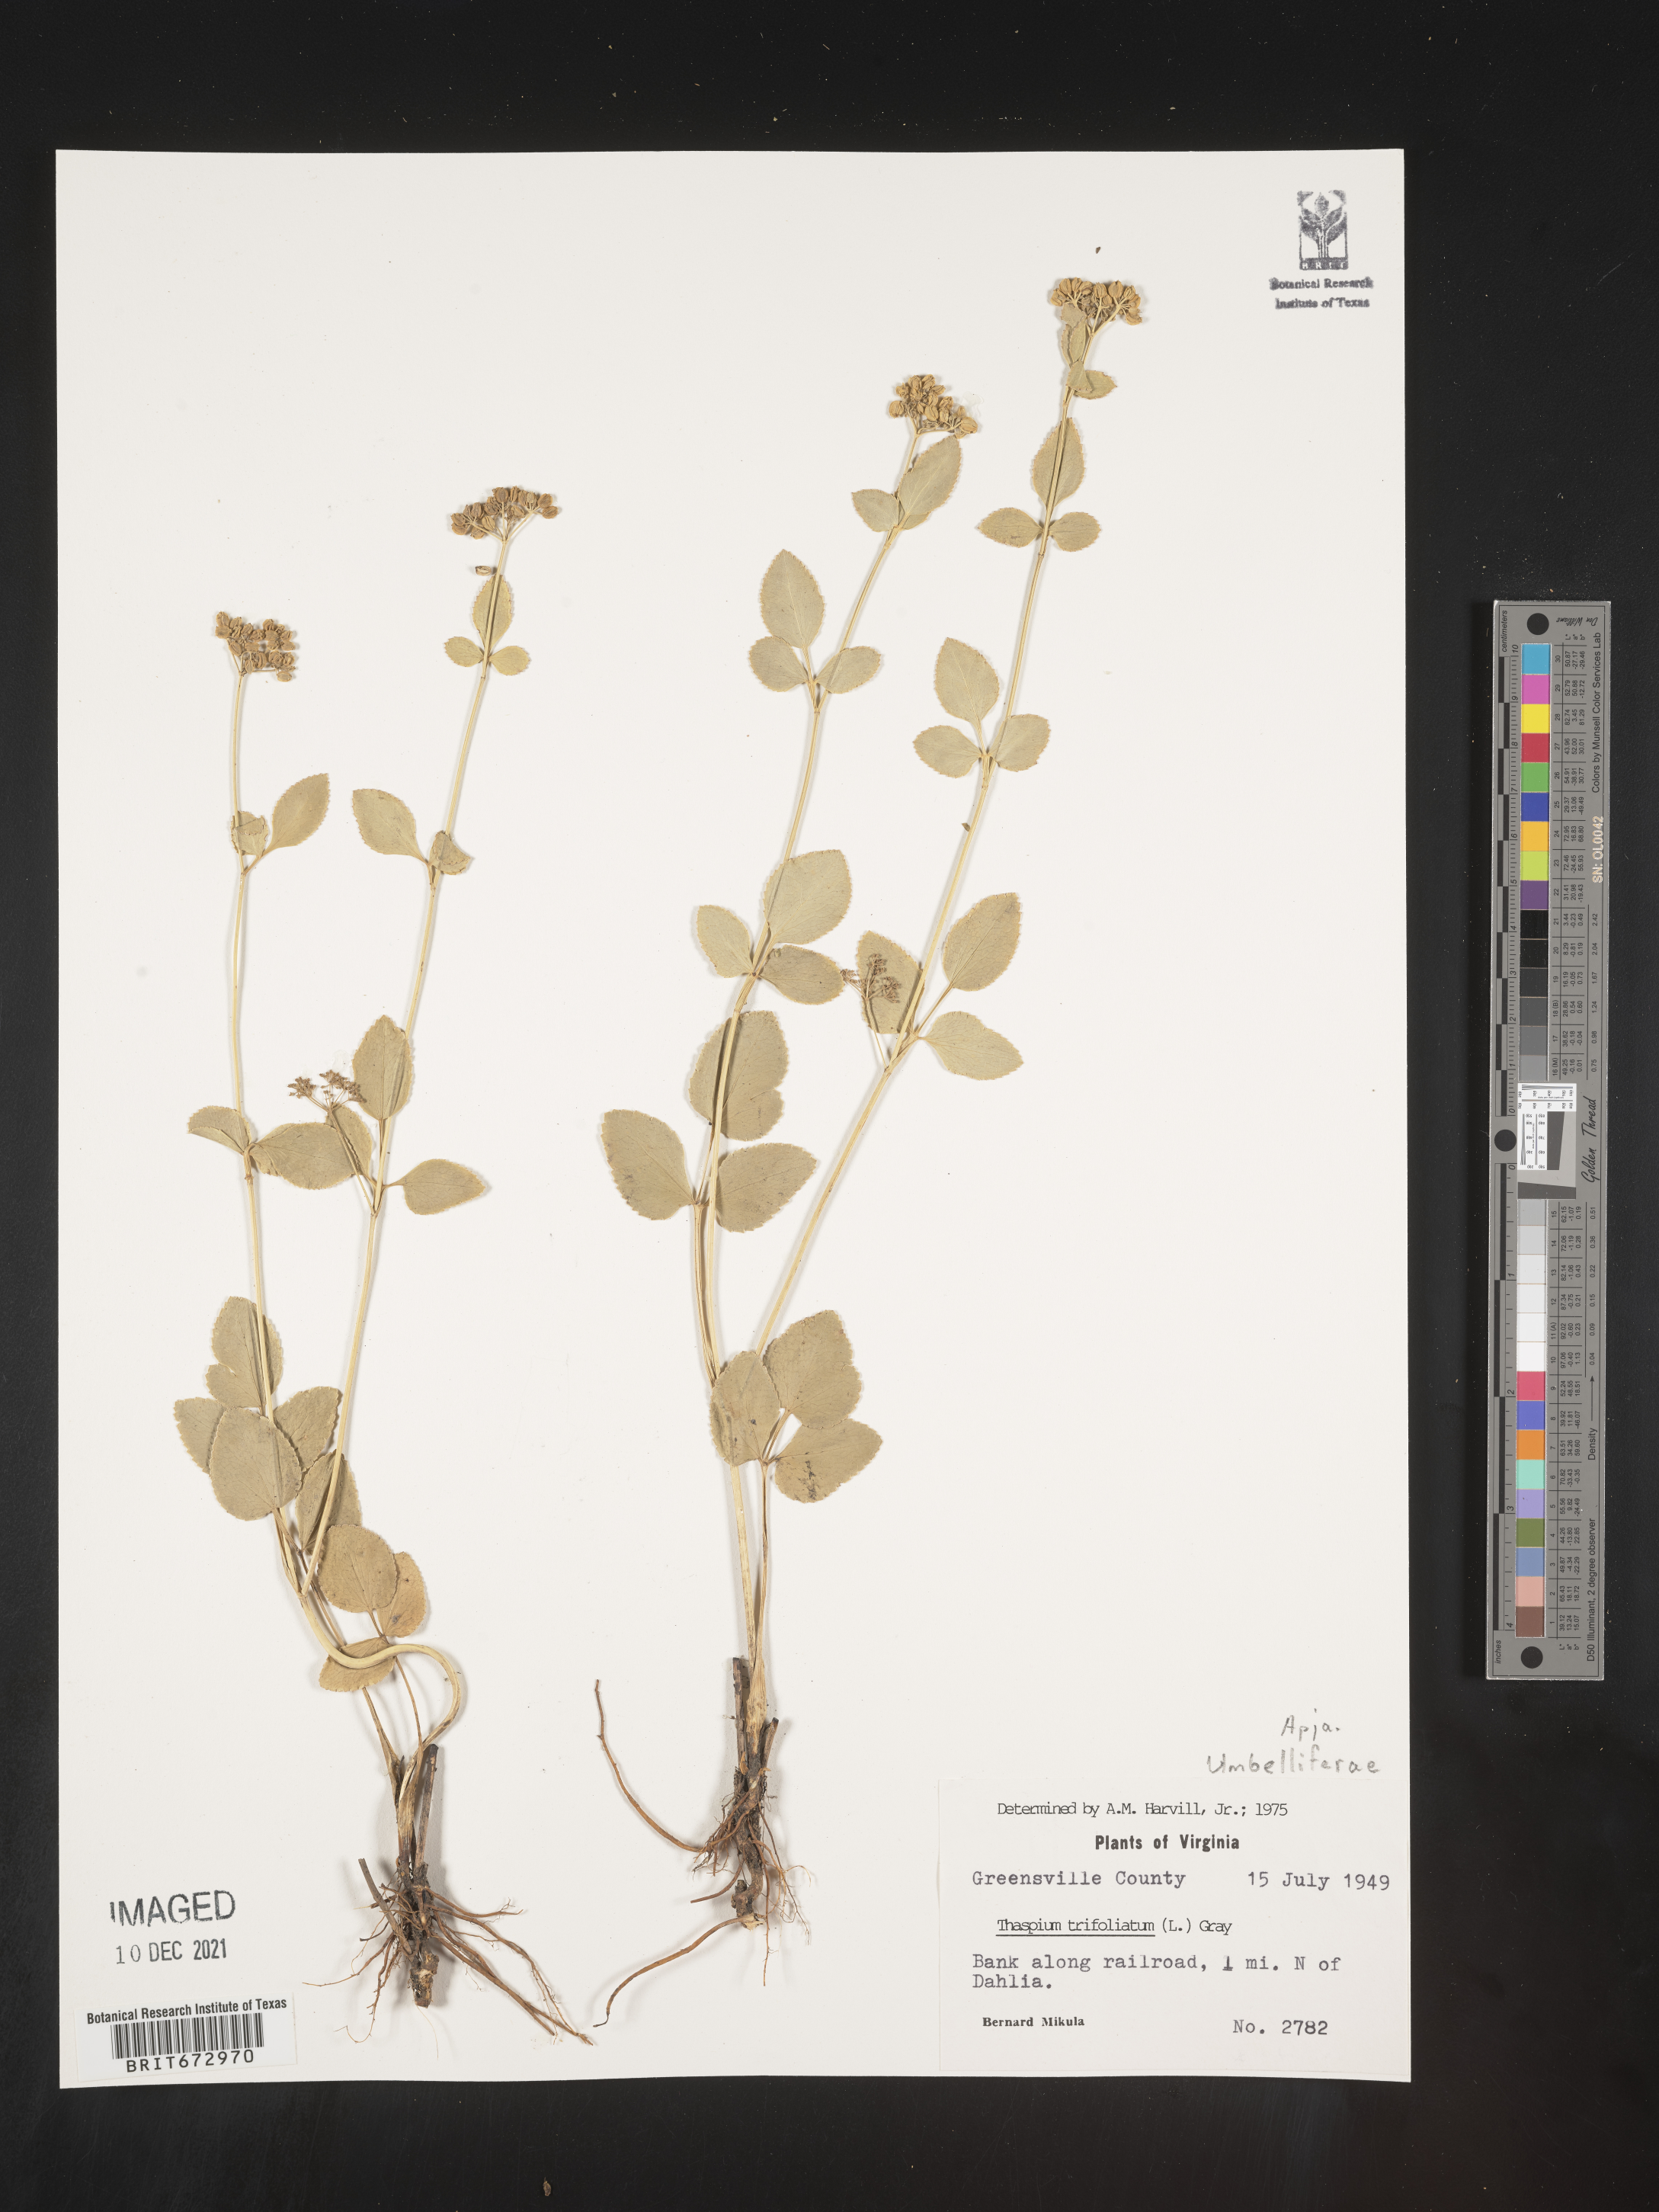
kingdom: Plantae
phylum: Tracheophyta
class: Magnoliopsida
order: Apiales
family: Apiaceae
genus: Thaspium
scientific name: Thaspium
